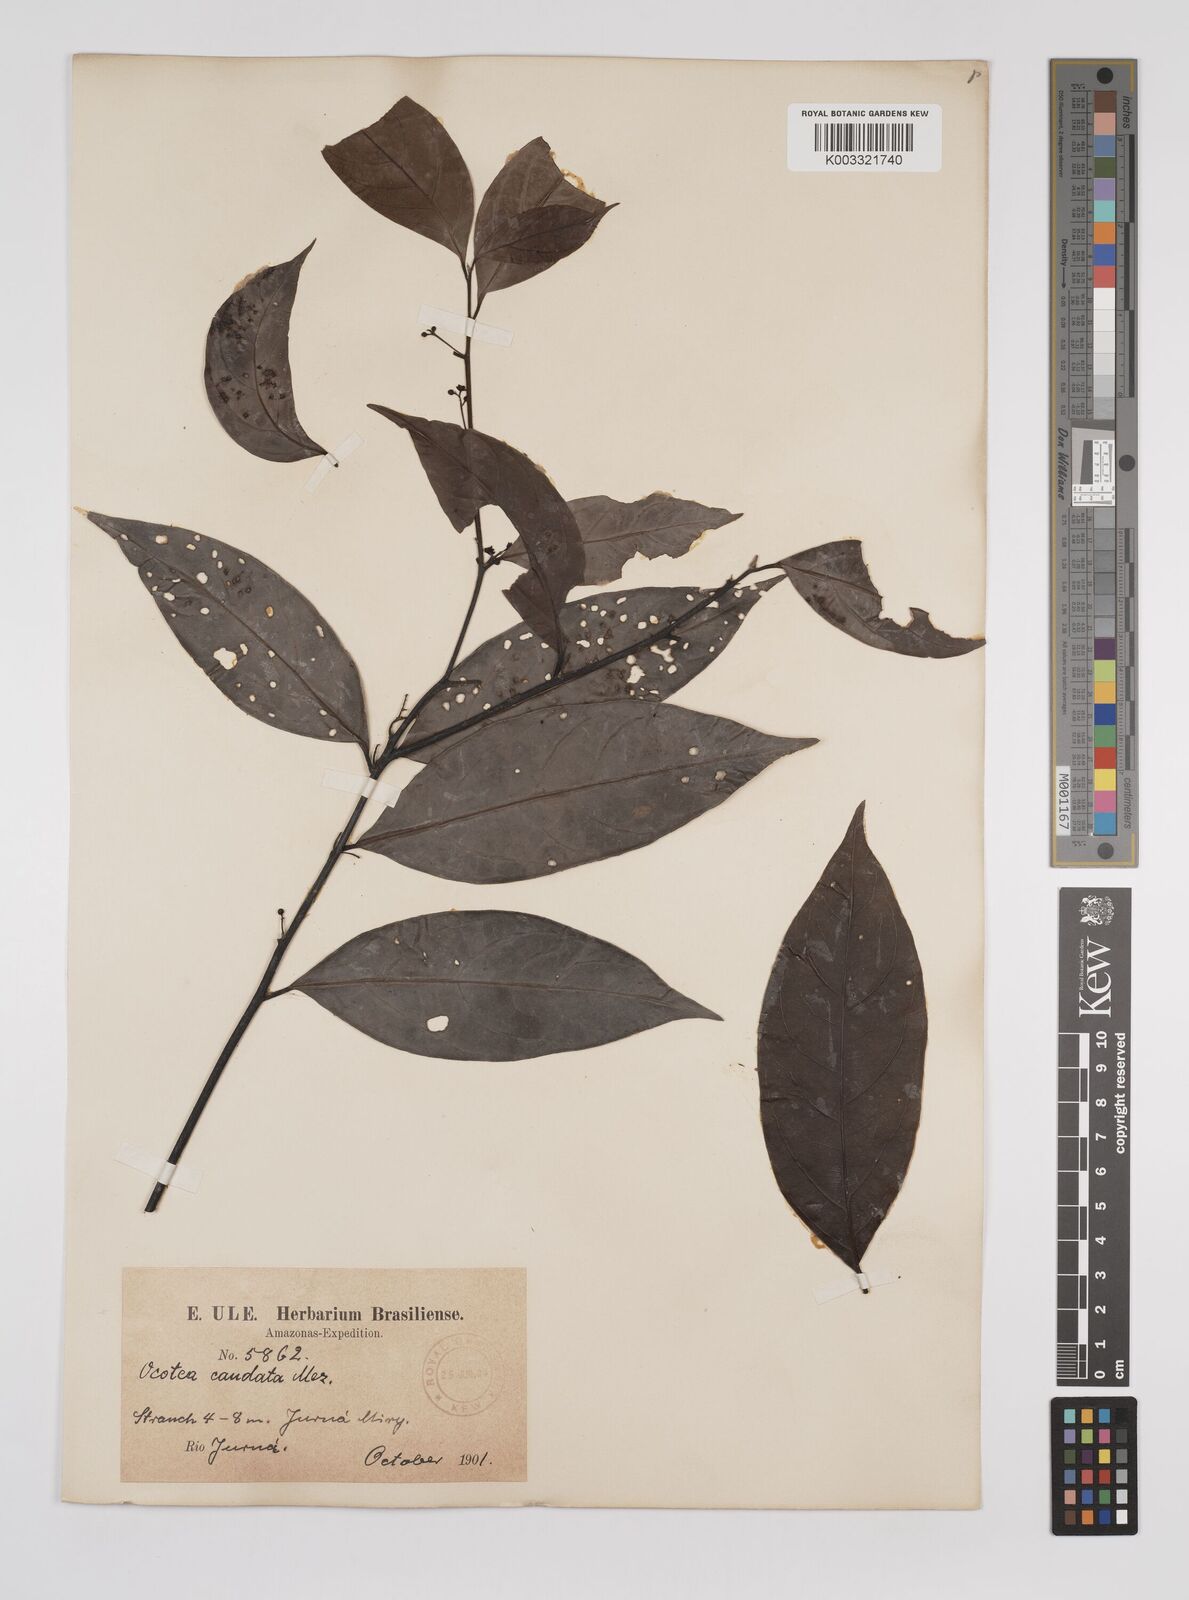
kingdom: Plantae
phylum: Tracheophyta
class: Magnoliopsida
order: Laurales
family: Lauraceae
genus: Ocotea
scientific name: Ocotea leptobotra
